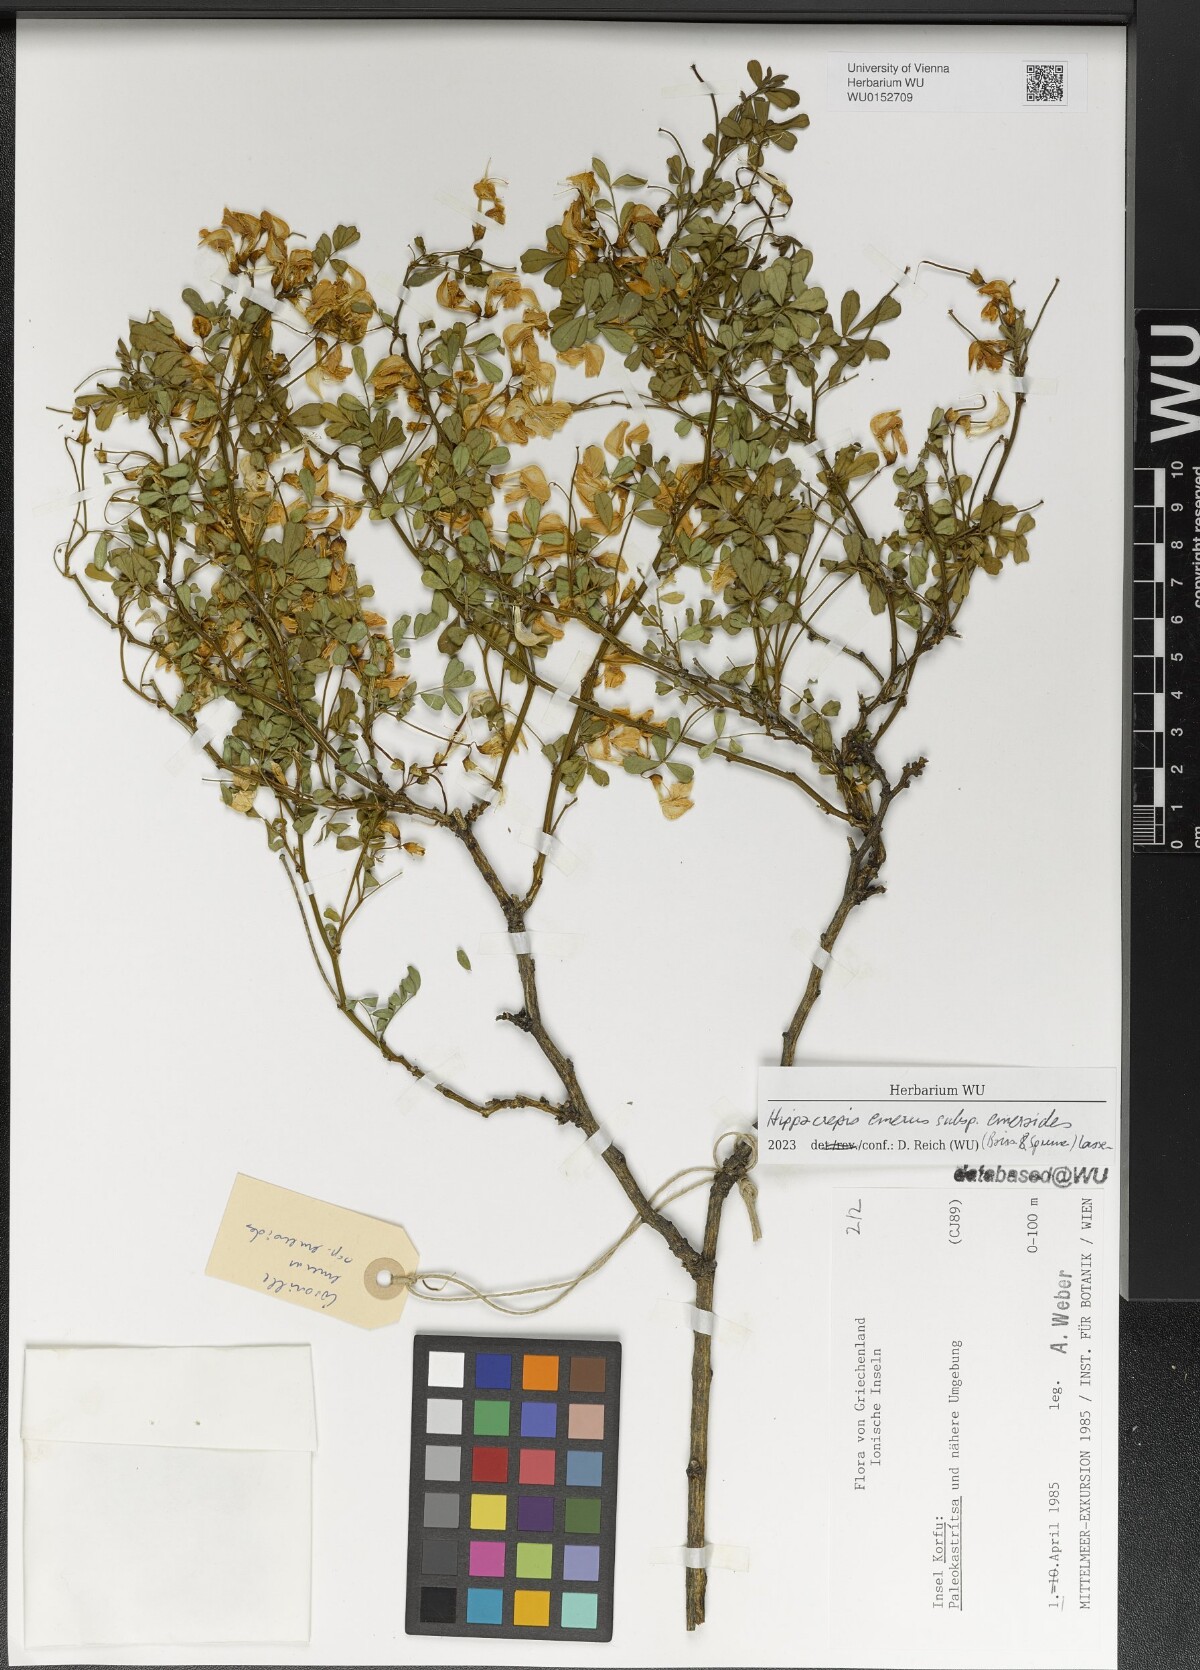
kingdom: Plantae
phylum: Tracheophyta
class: Magnoliopsida
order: Fabales
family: Fabaceae
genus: Hippocrepis
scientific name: Hippocrepis emerus
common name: Scorpion senna
